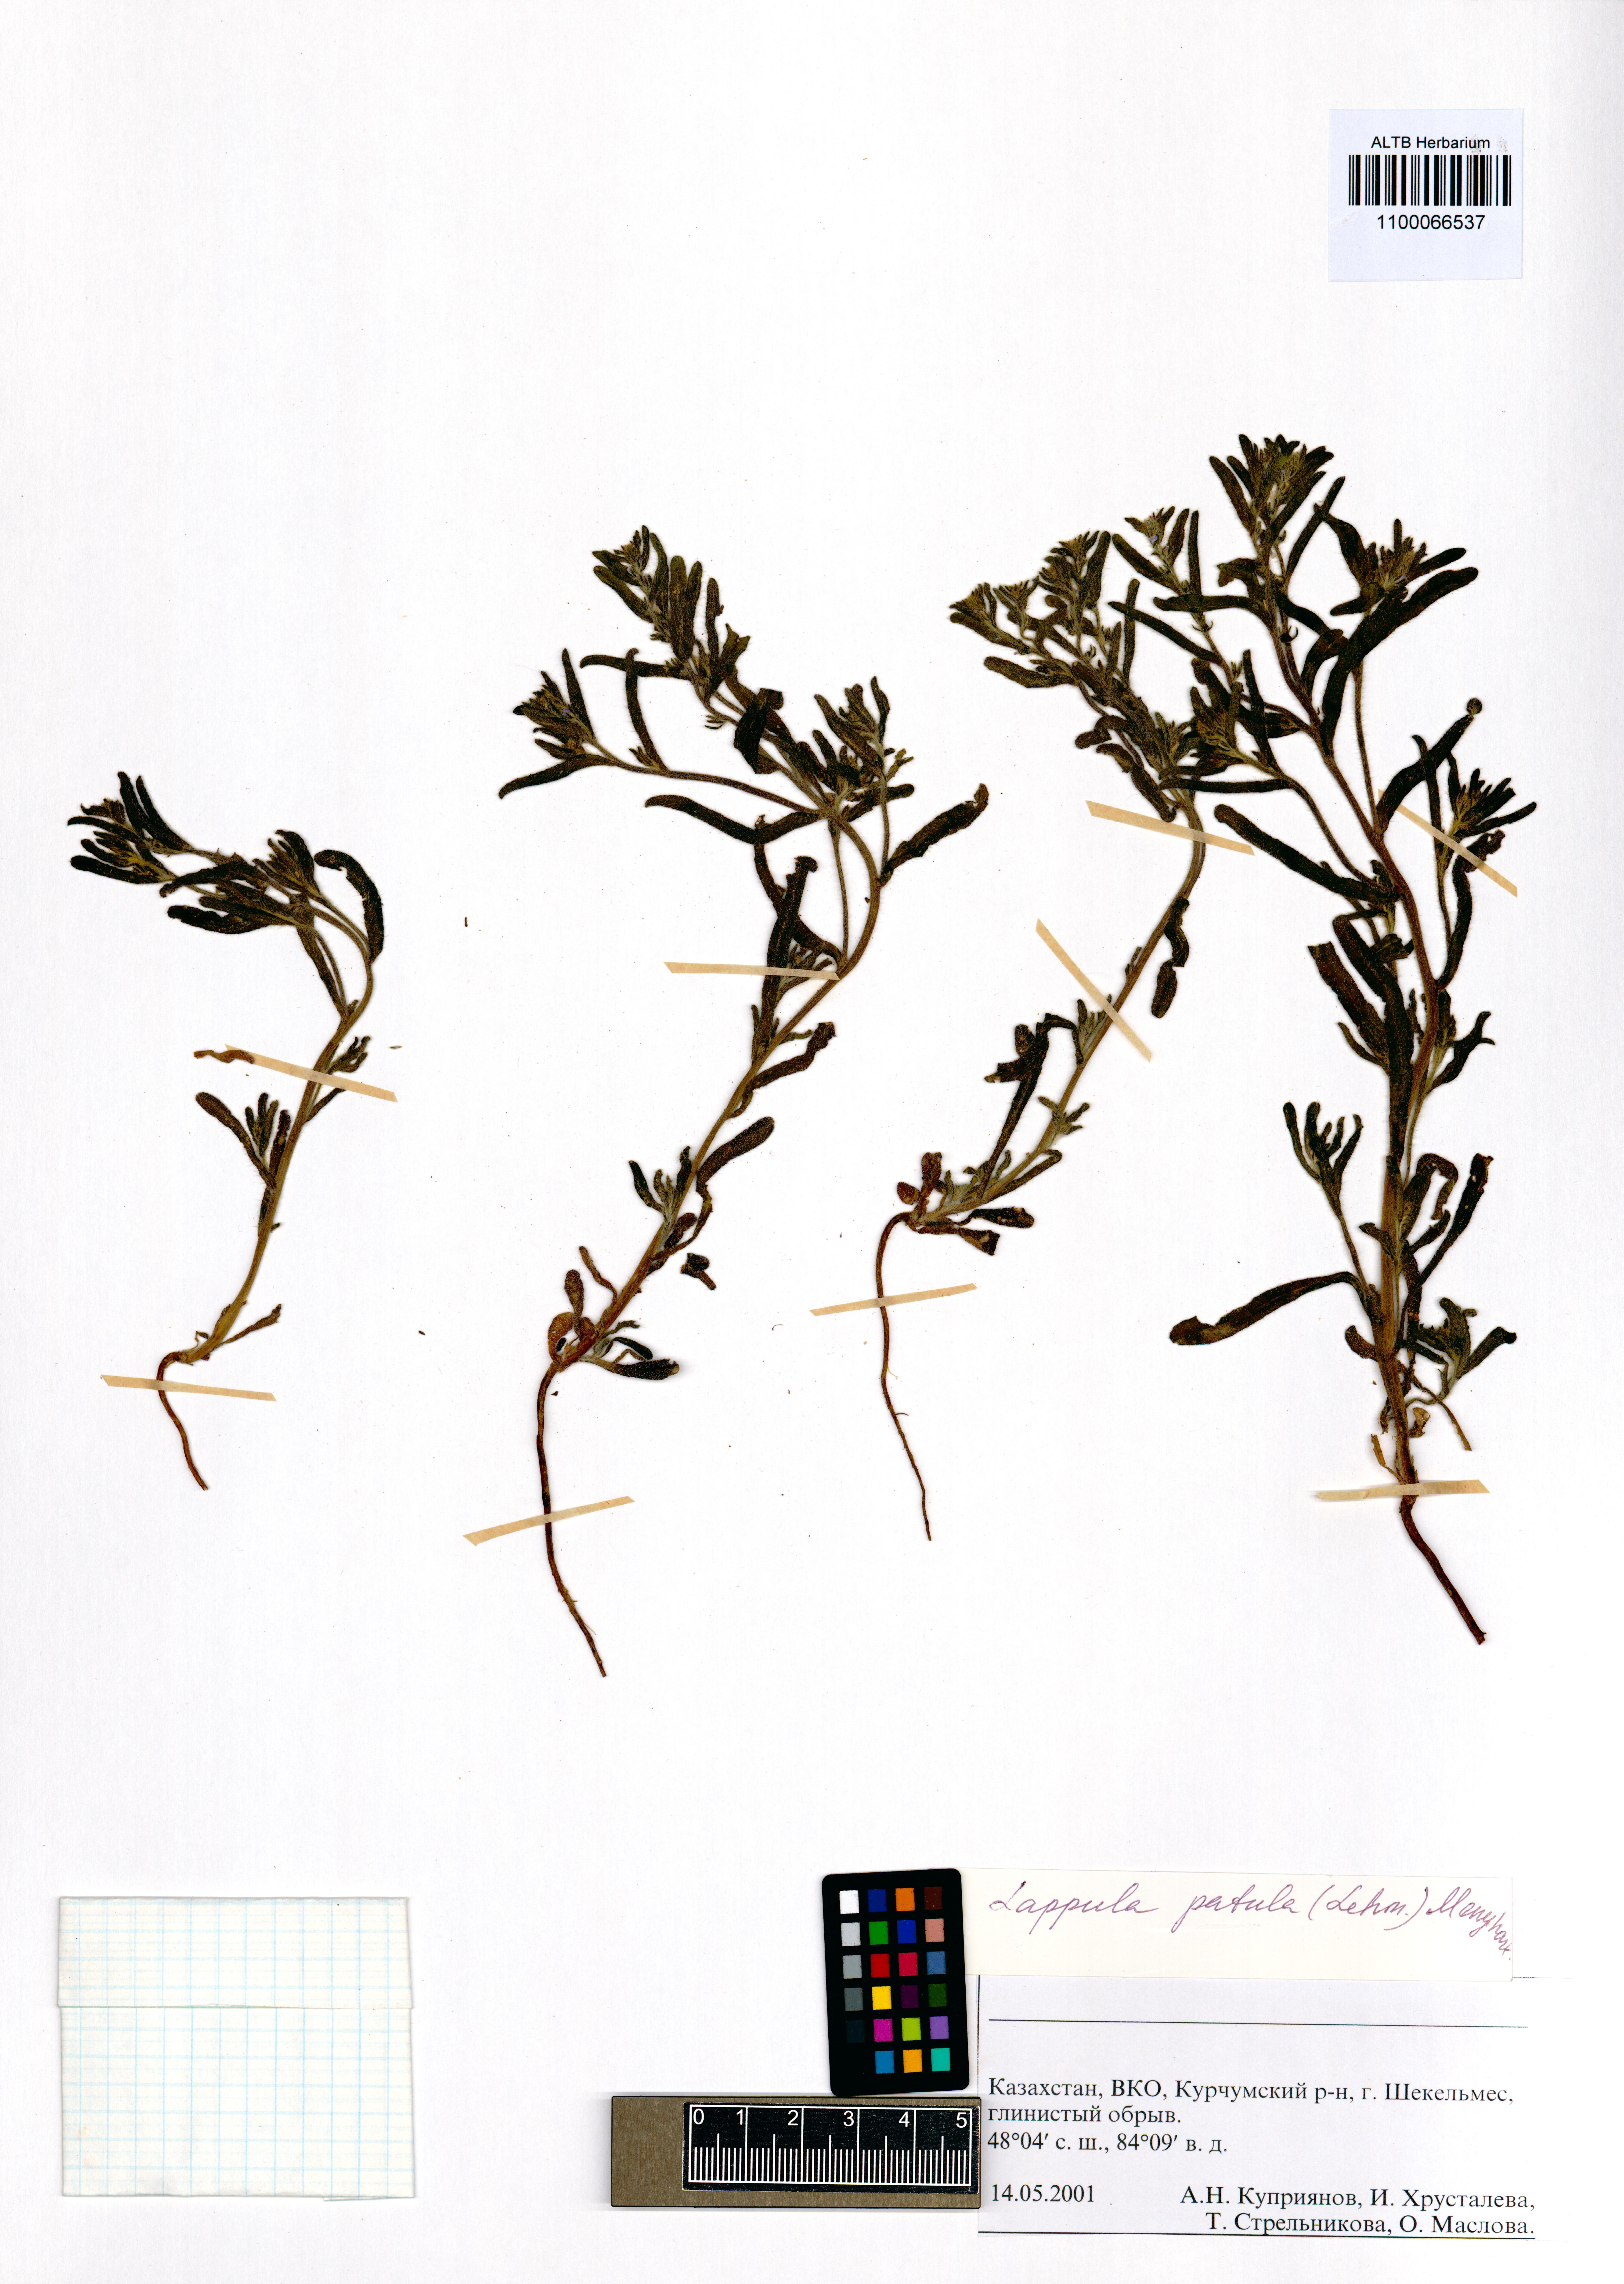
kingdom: Plantae
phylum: Tracheophyta
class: Magnoliopsida
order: Boraginales
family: Boraginaceae
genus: Lappula
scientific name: Lappula patula
